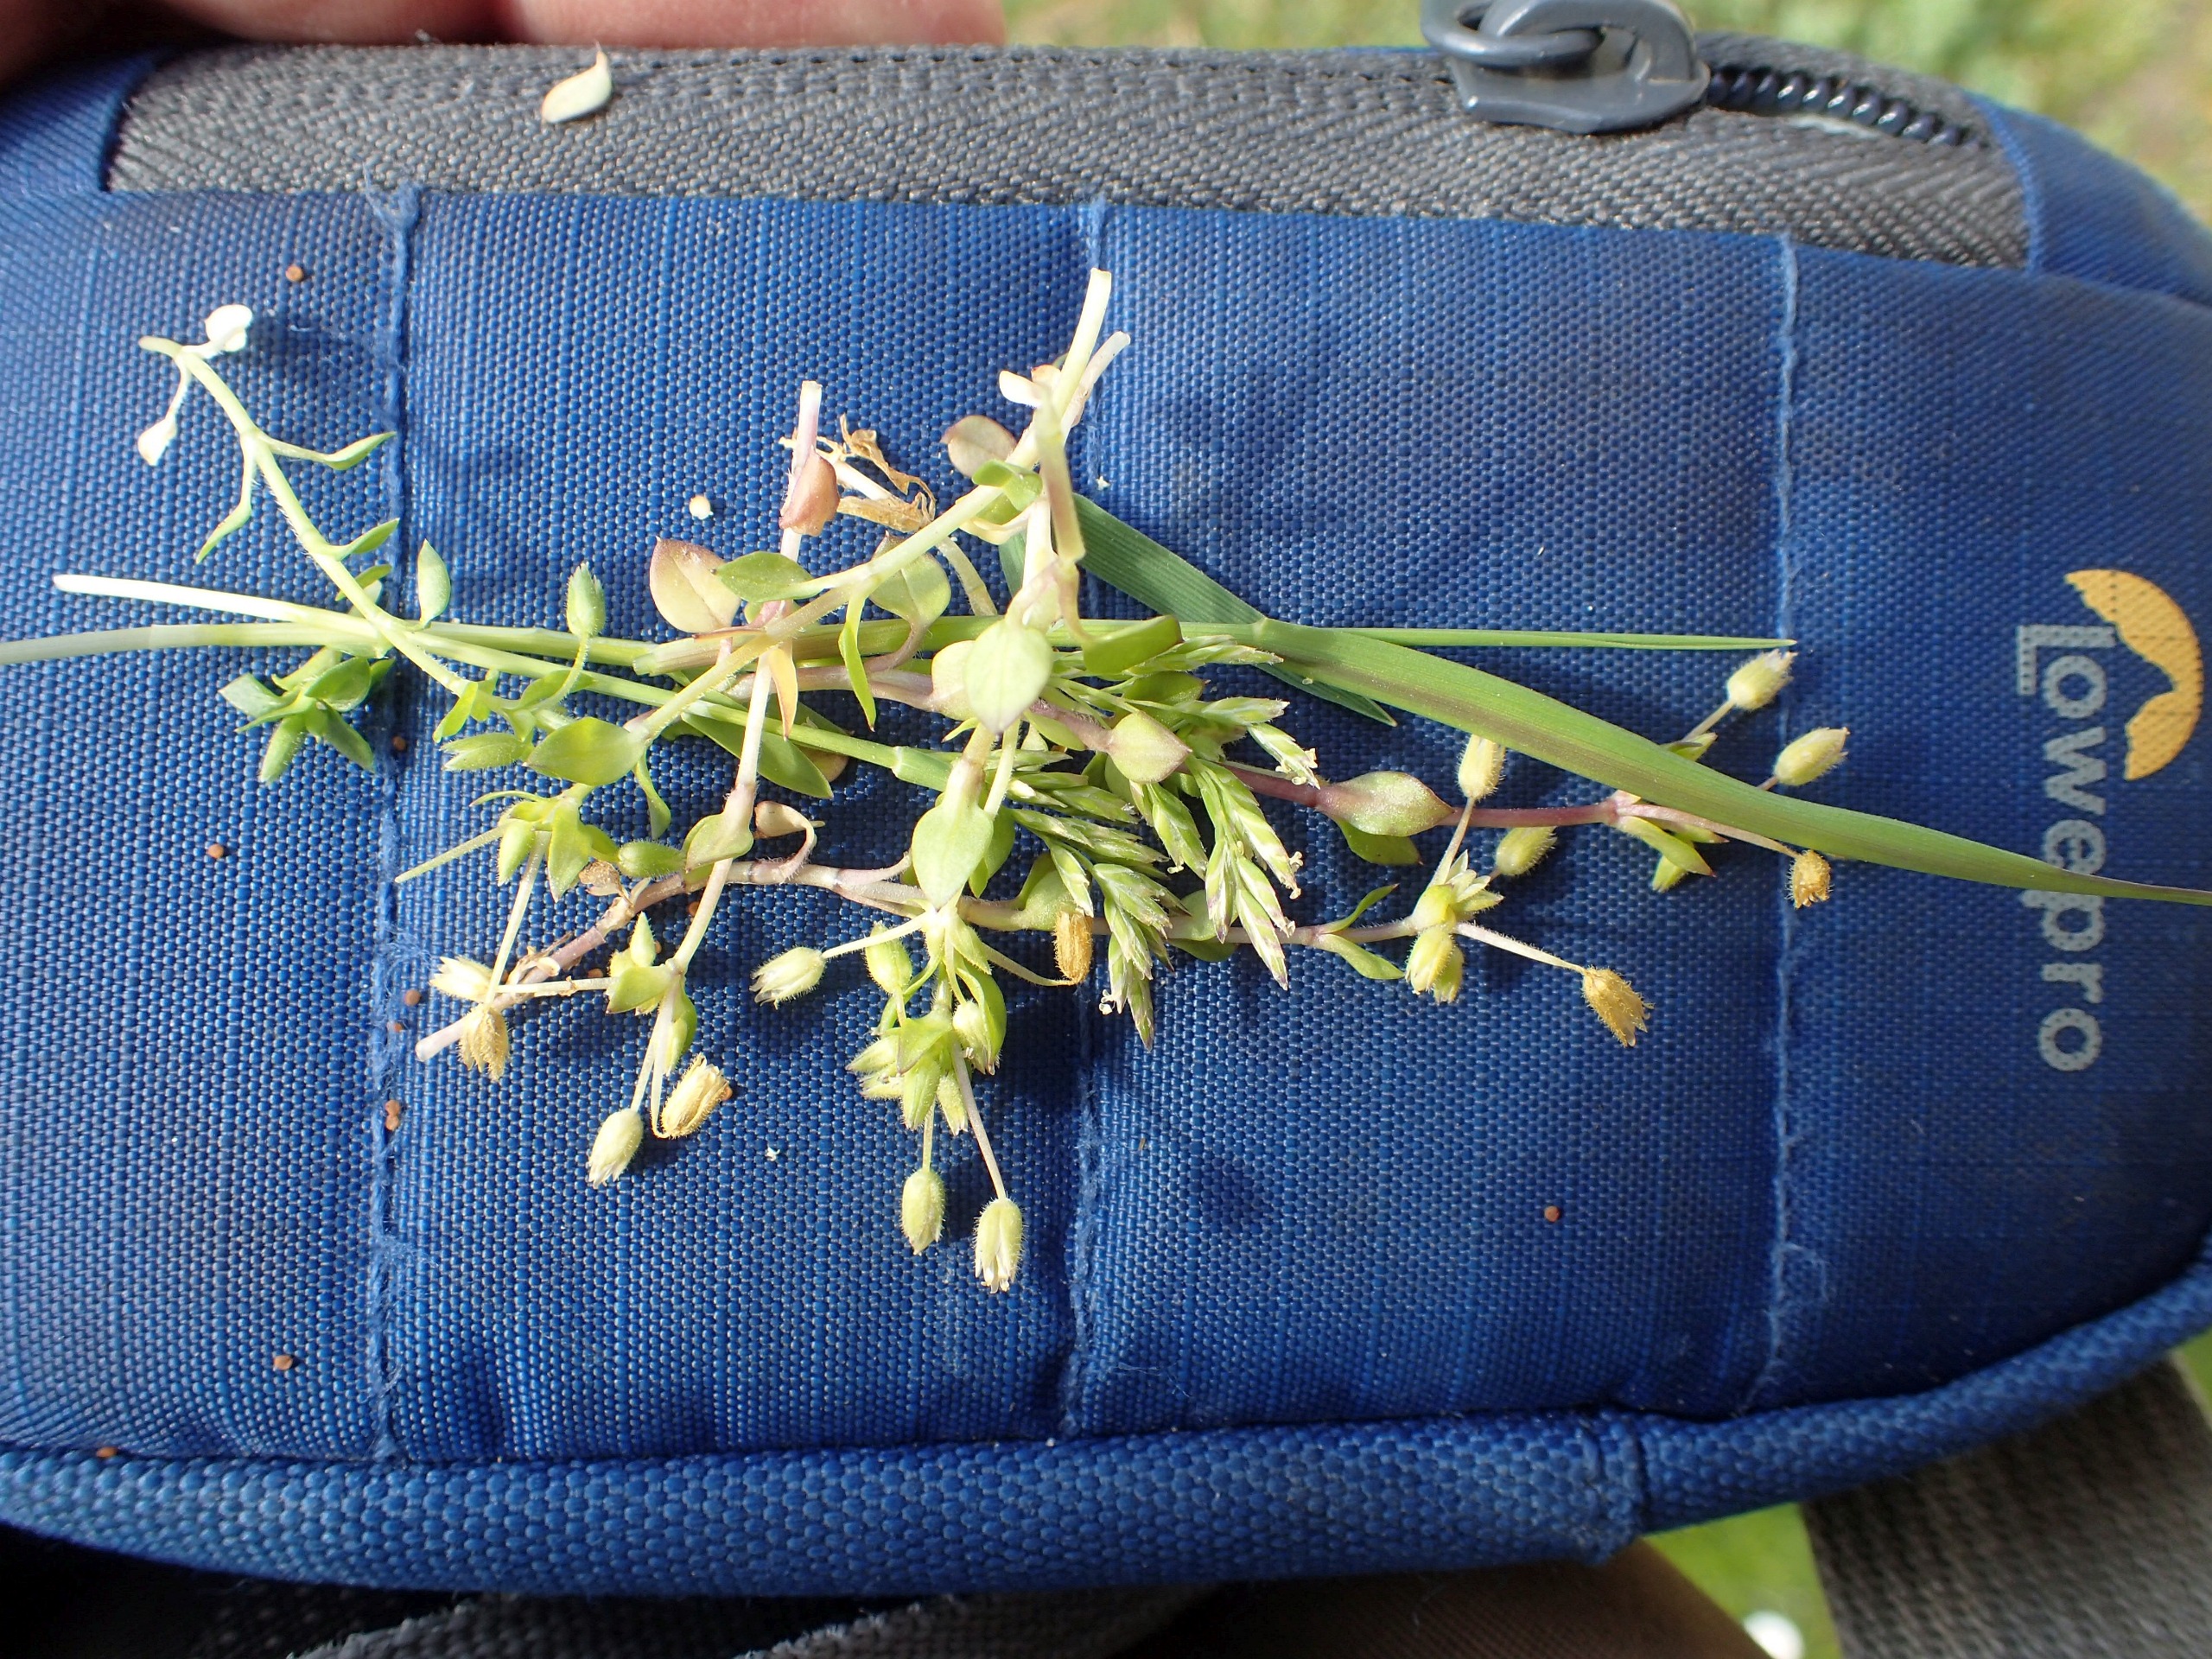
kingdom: Plantae
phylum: Tracheophyta
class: Magnoliopsida
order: Caryophyllales
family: Caryophyllaceae
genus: Stellaria
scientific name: Stellaria media
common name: Almindelig fuglegræs
